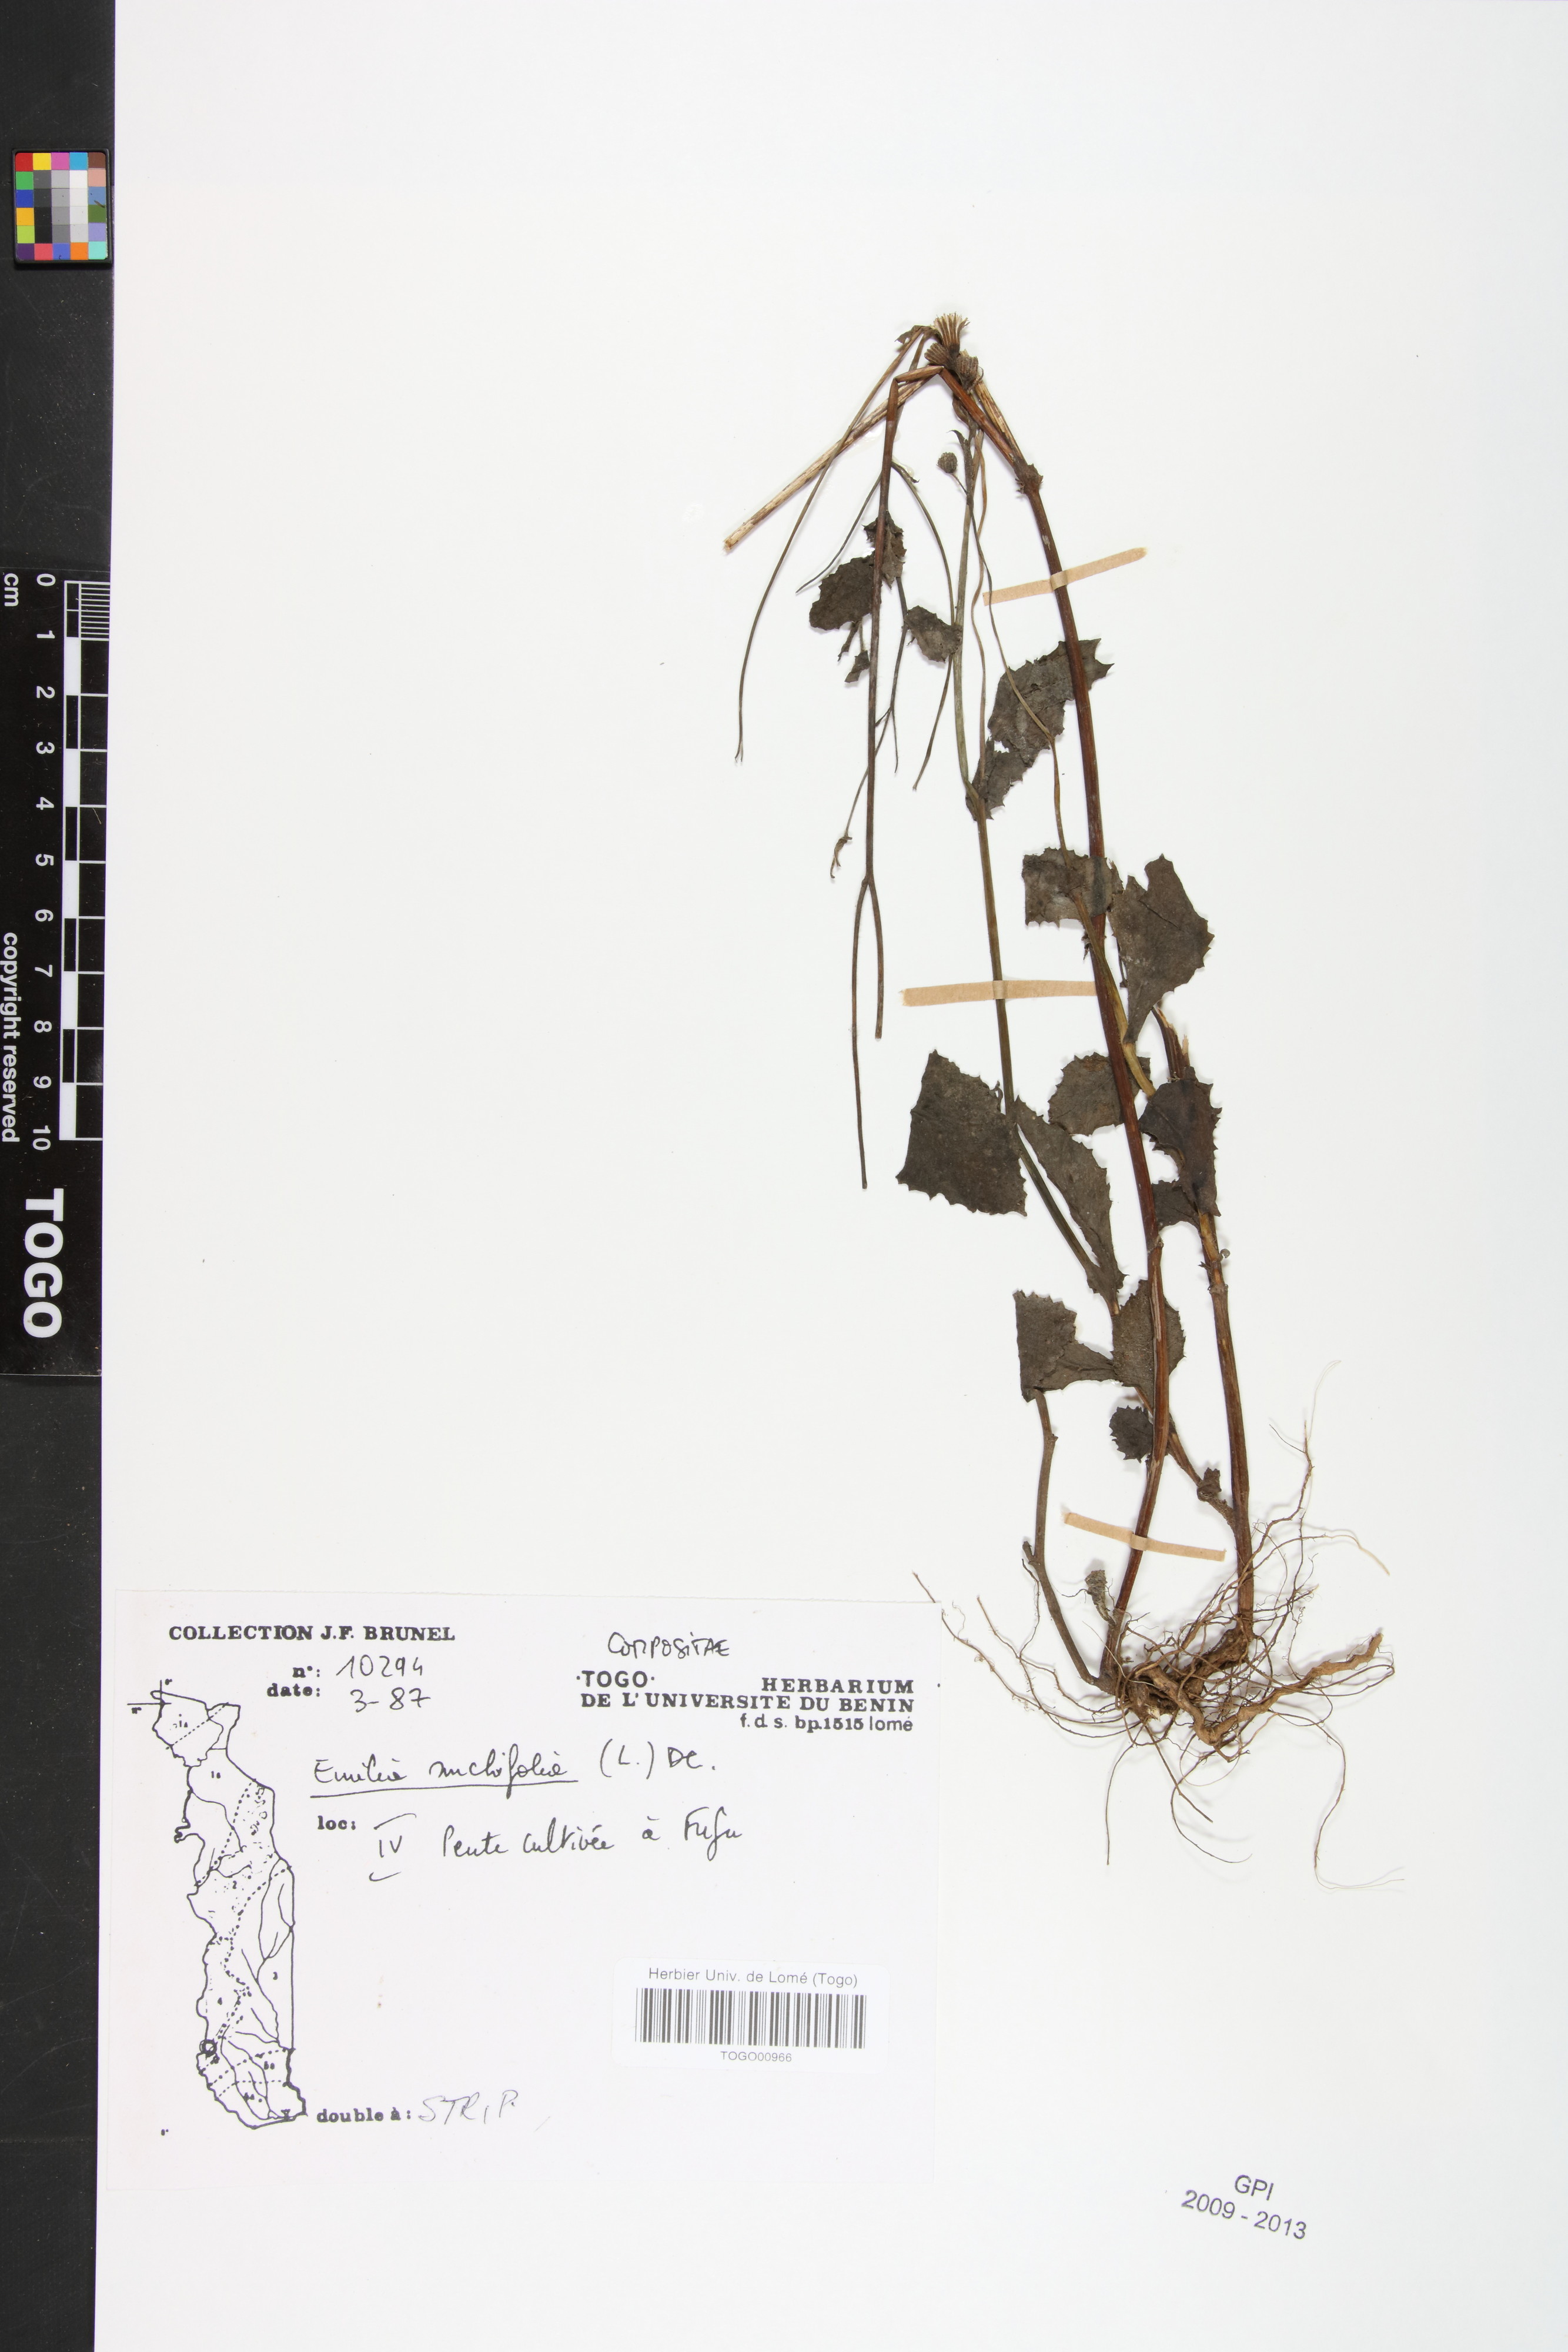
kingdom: Plantae
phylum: Tracheophyta
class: Magnoliopsida
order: Asterales
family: Asteraceae
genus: Emilia
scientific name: Emilia sonchifolia
